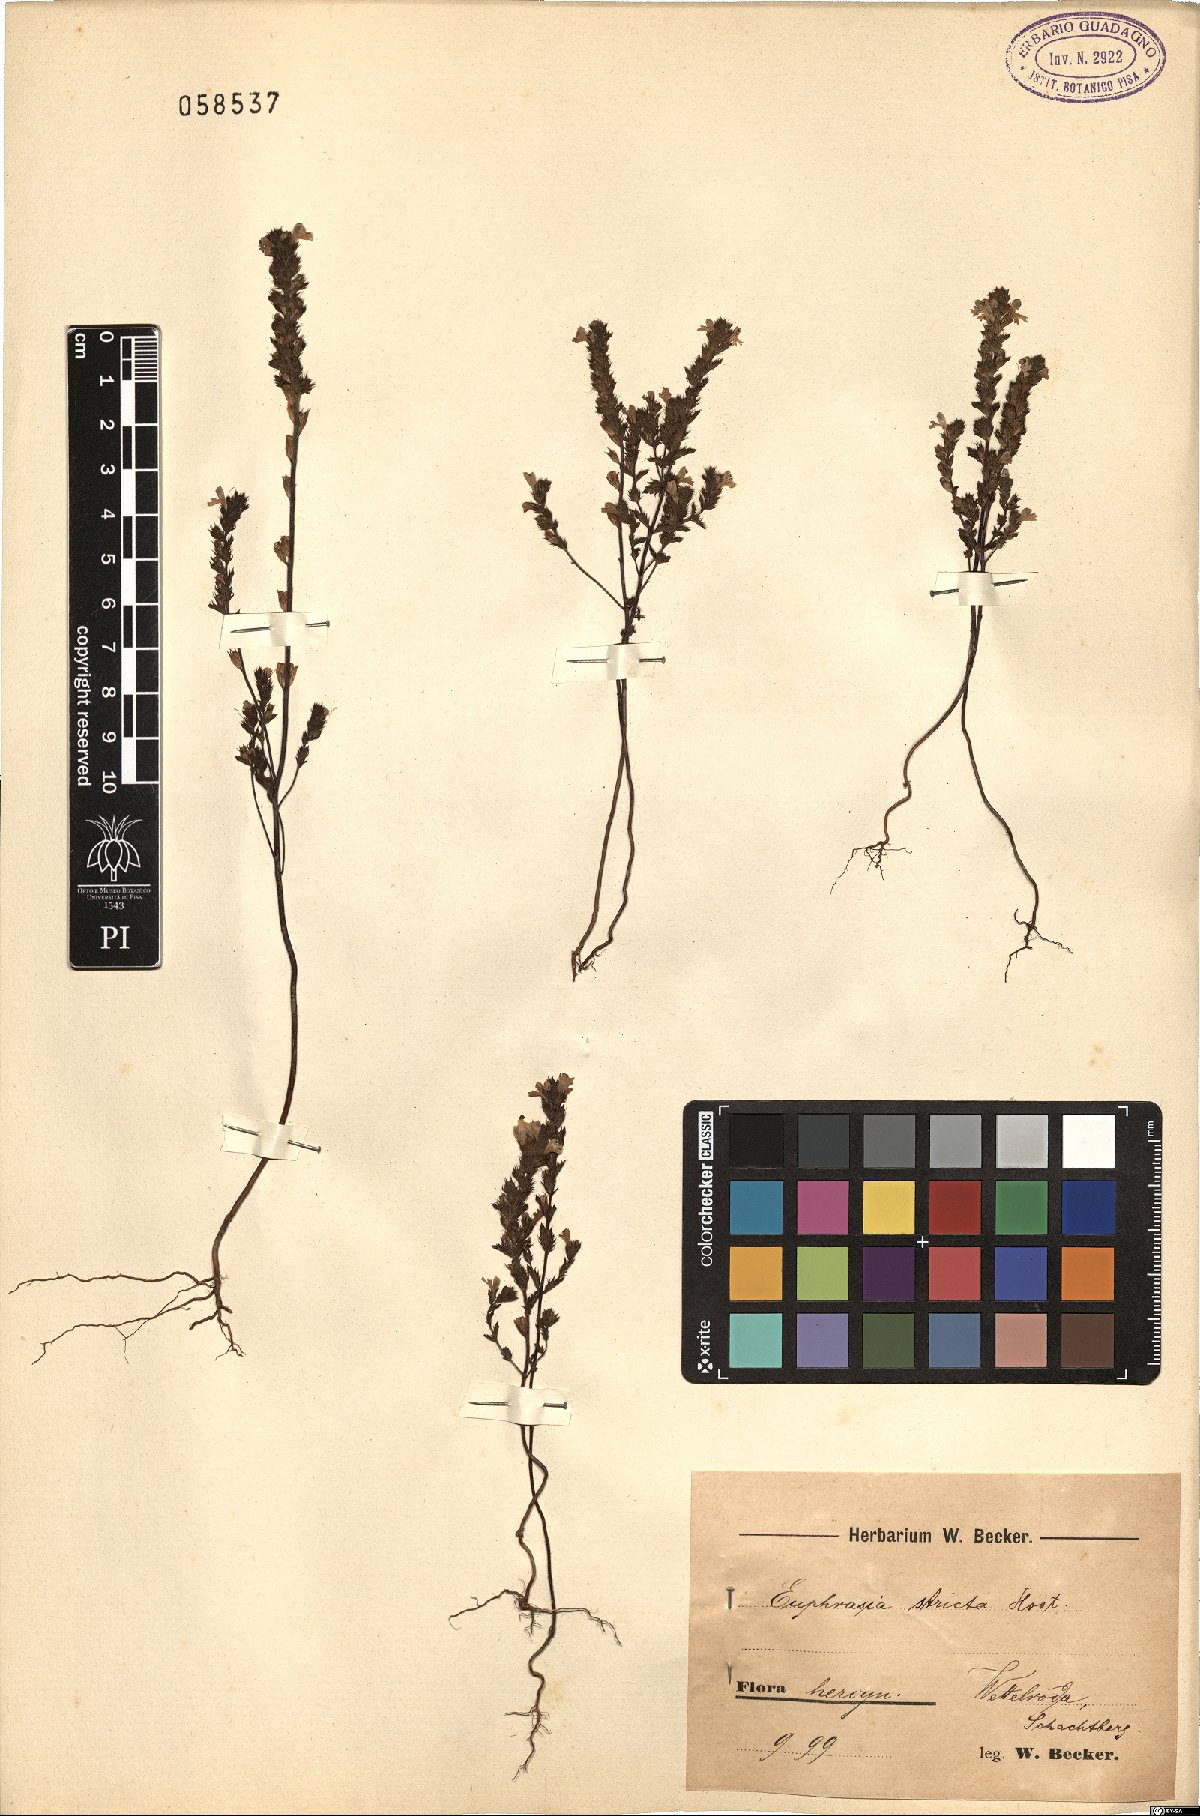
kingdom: Plantae
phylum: Tracheophyta
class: Magnoliopsida
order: Lamiales
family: Orobanchaceae
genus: Euphrasia
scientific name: Euphrasia stricta
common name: Drug eyebright
